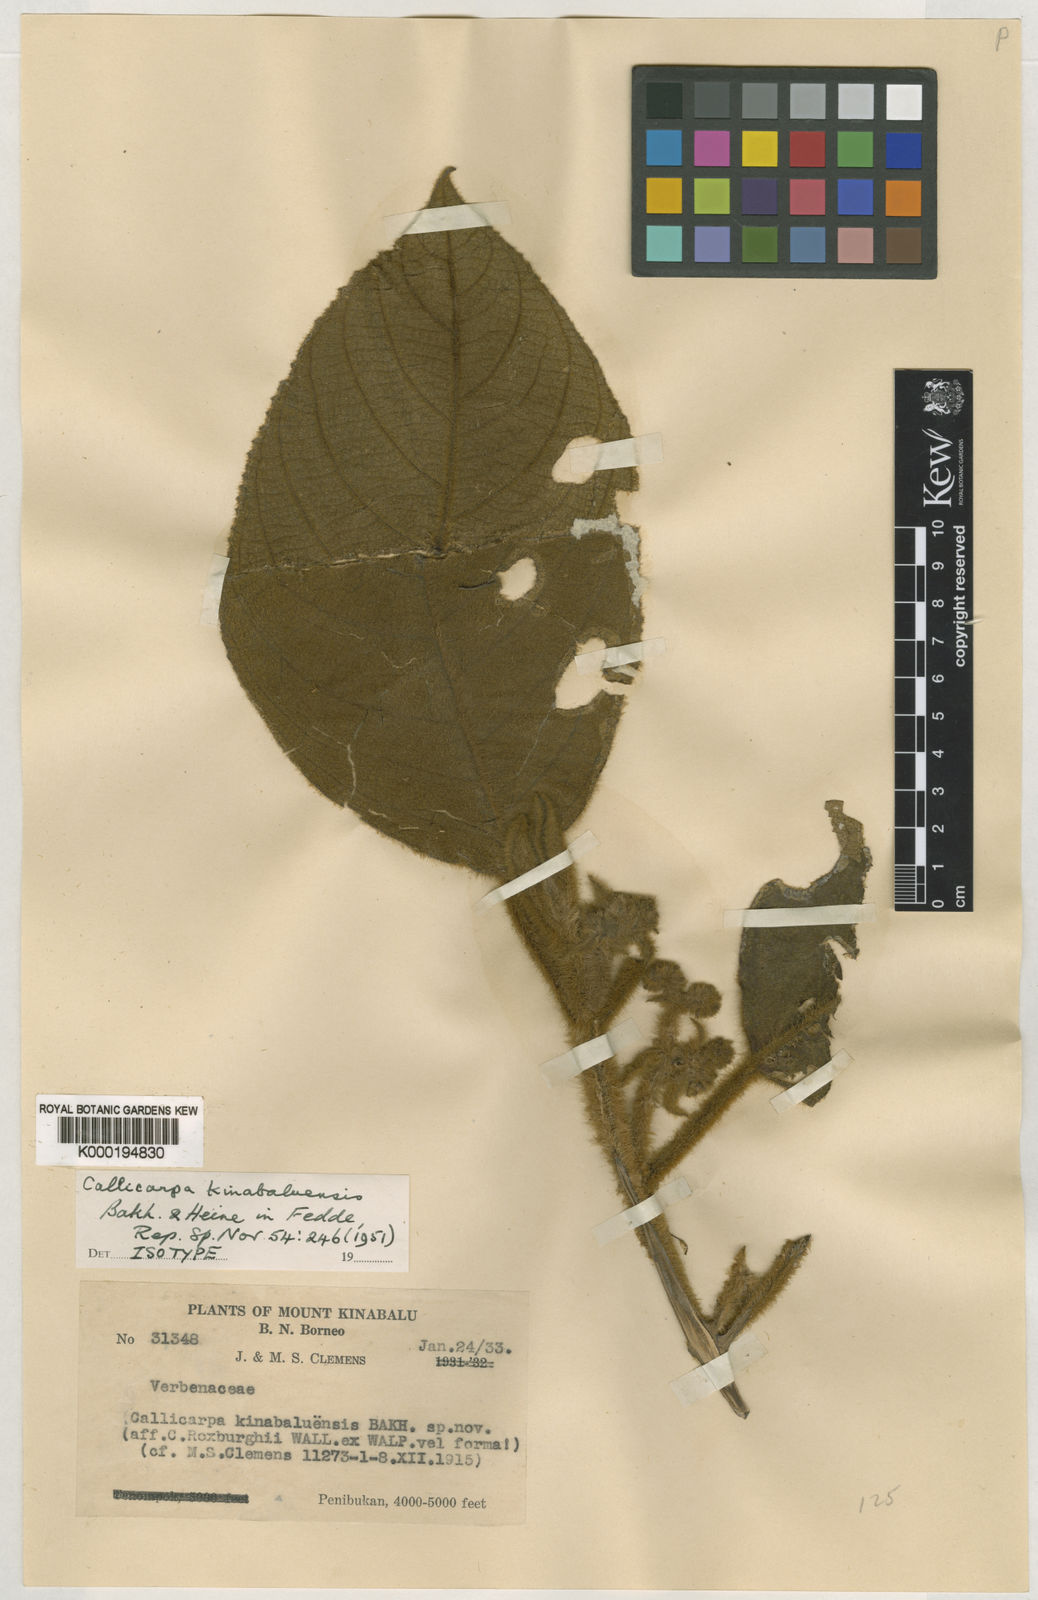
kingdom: Plantae
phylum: Tracheophyta
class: Magnoliopsida
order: Lamiales
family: Lamiaceae
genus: Callicarpa
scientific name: Callicarpa kinabaluensis
